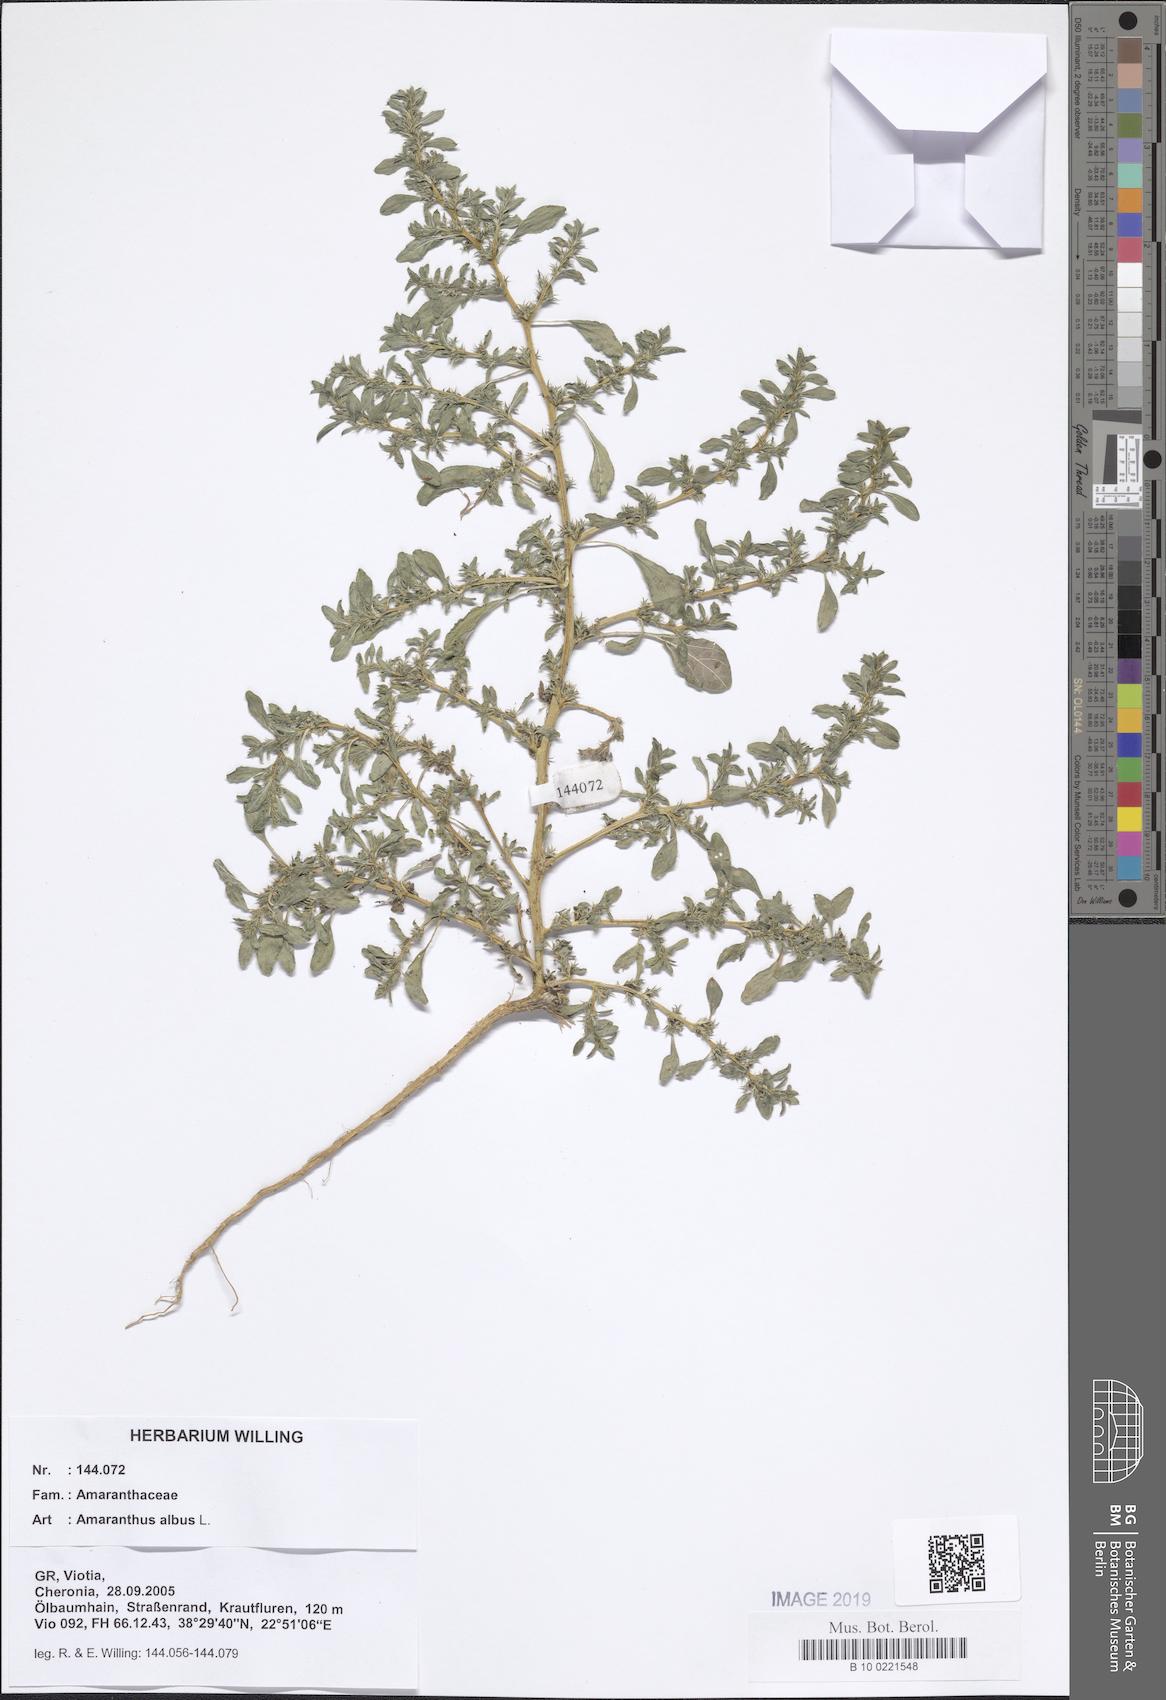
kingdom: Plantae
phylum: Tracheophyta
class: Magnoliopsida
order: Caryophyllales
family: Amaranthaceae
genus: Amaranthus
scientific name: Amaranthus albus
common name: White pigweed
